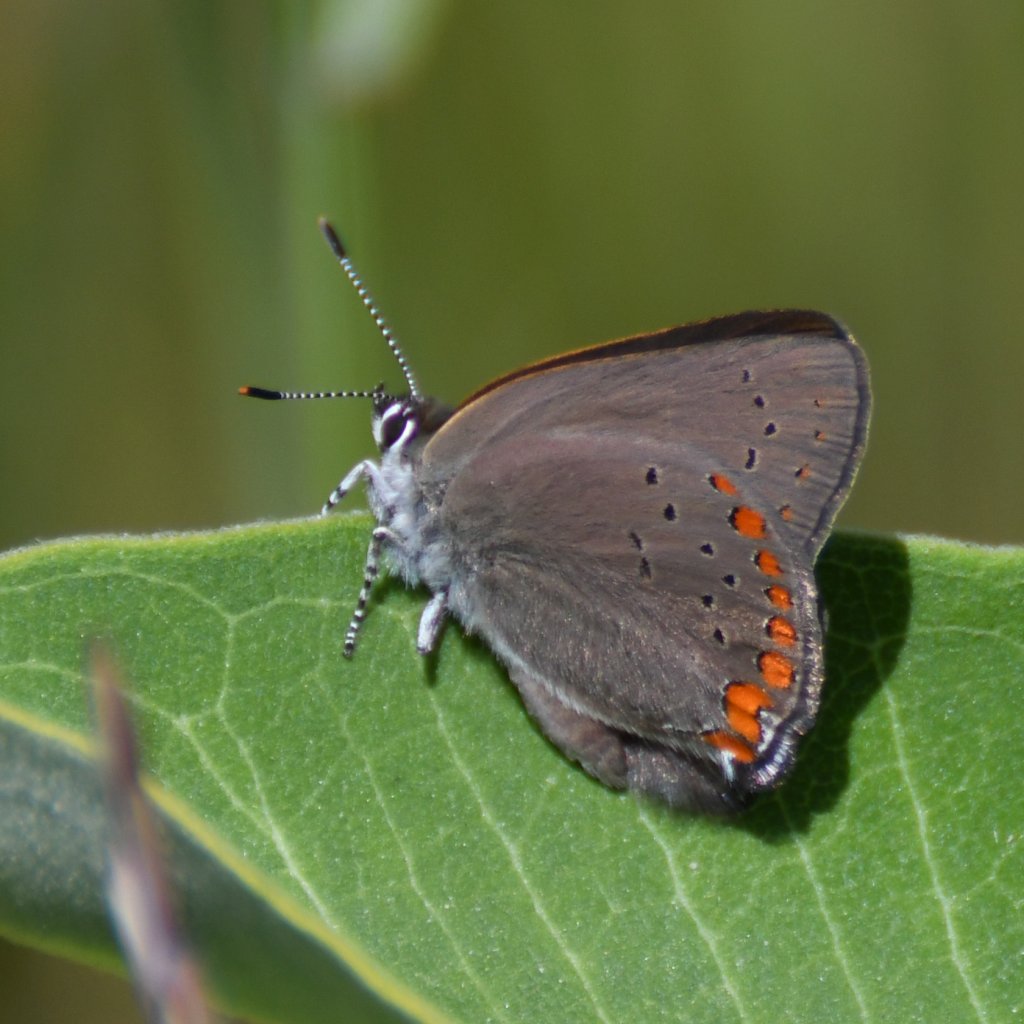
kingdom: Animalia
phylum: Arthropoda
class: Insecta
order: Lepidoptera
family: Lycaenidae
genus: Harkenclenus
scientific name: Harkenclenus titus
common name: Coral Hairstreak
